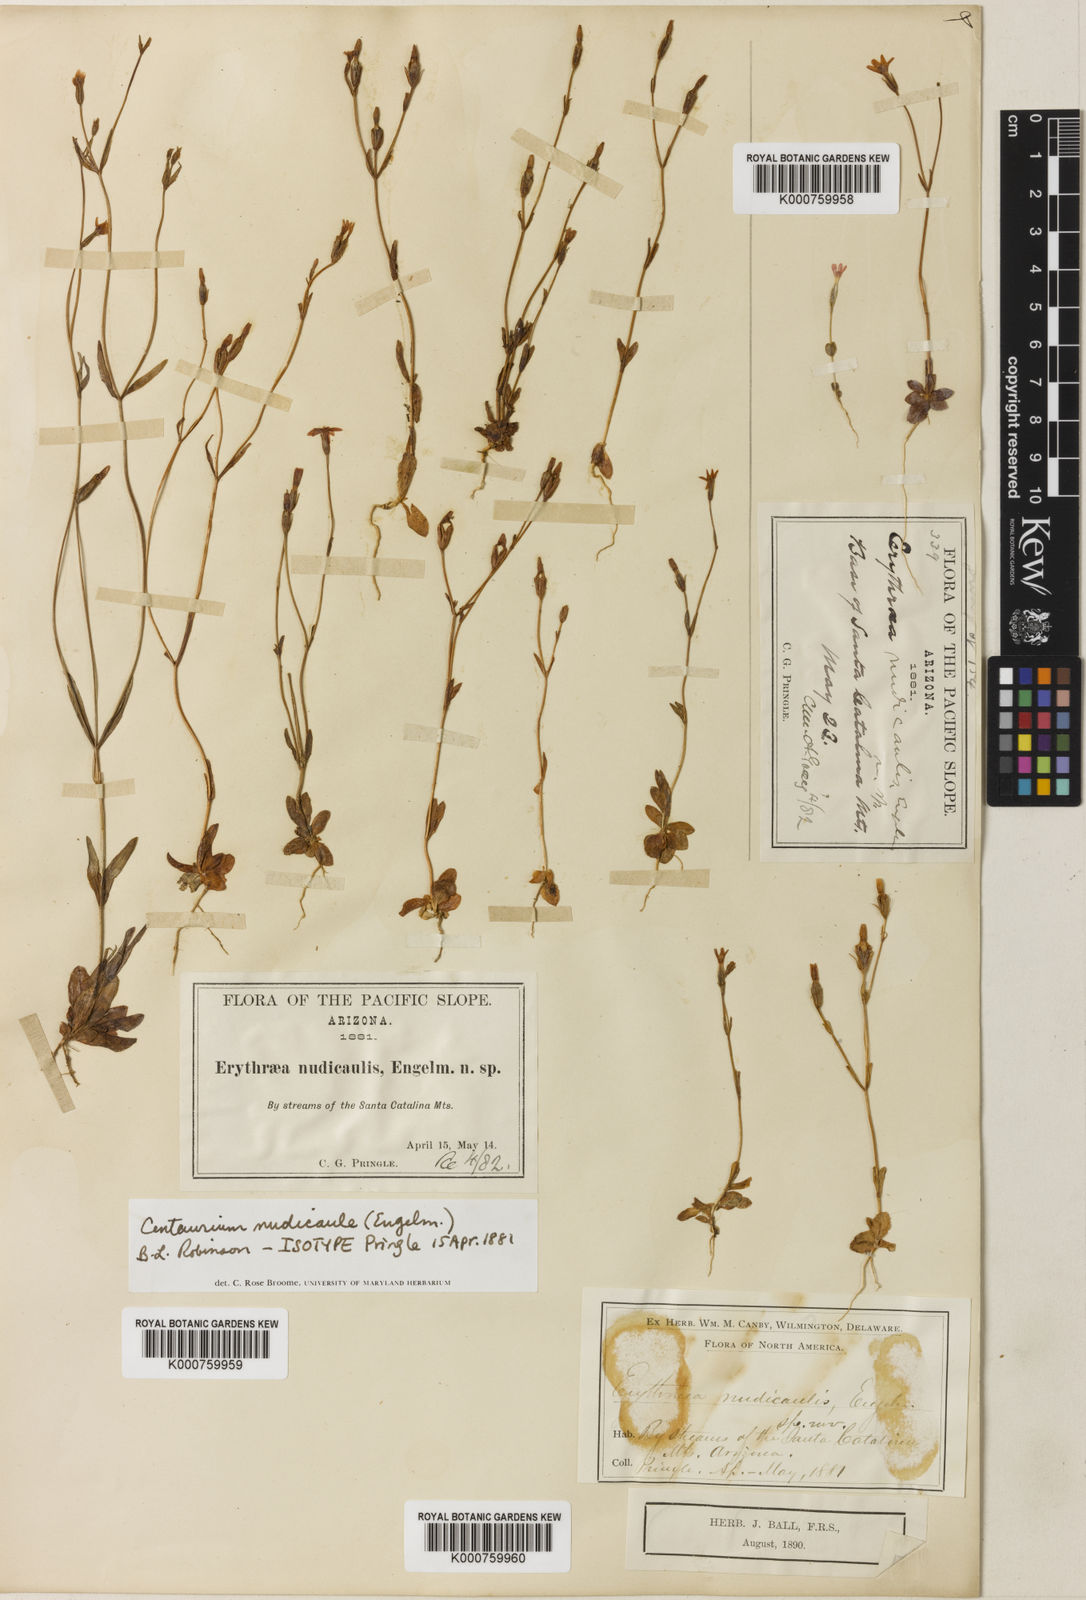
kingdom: Plantae
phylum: Tracheophyta
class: Magnoliopsida
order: Gentianales
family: Gentianaceae
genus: Zeltnera
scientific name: Zeltnera nudicaulis
